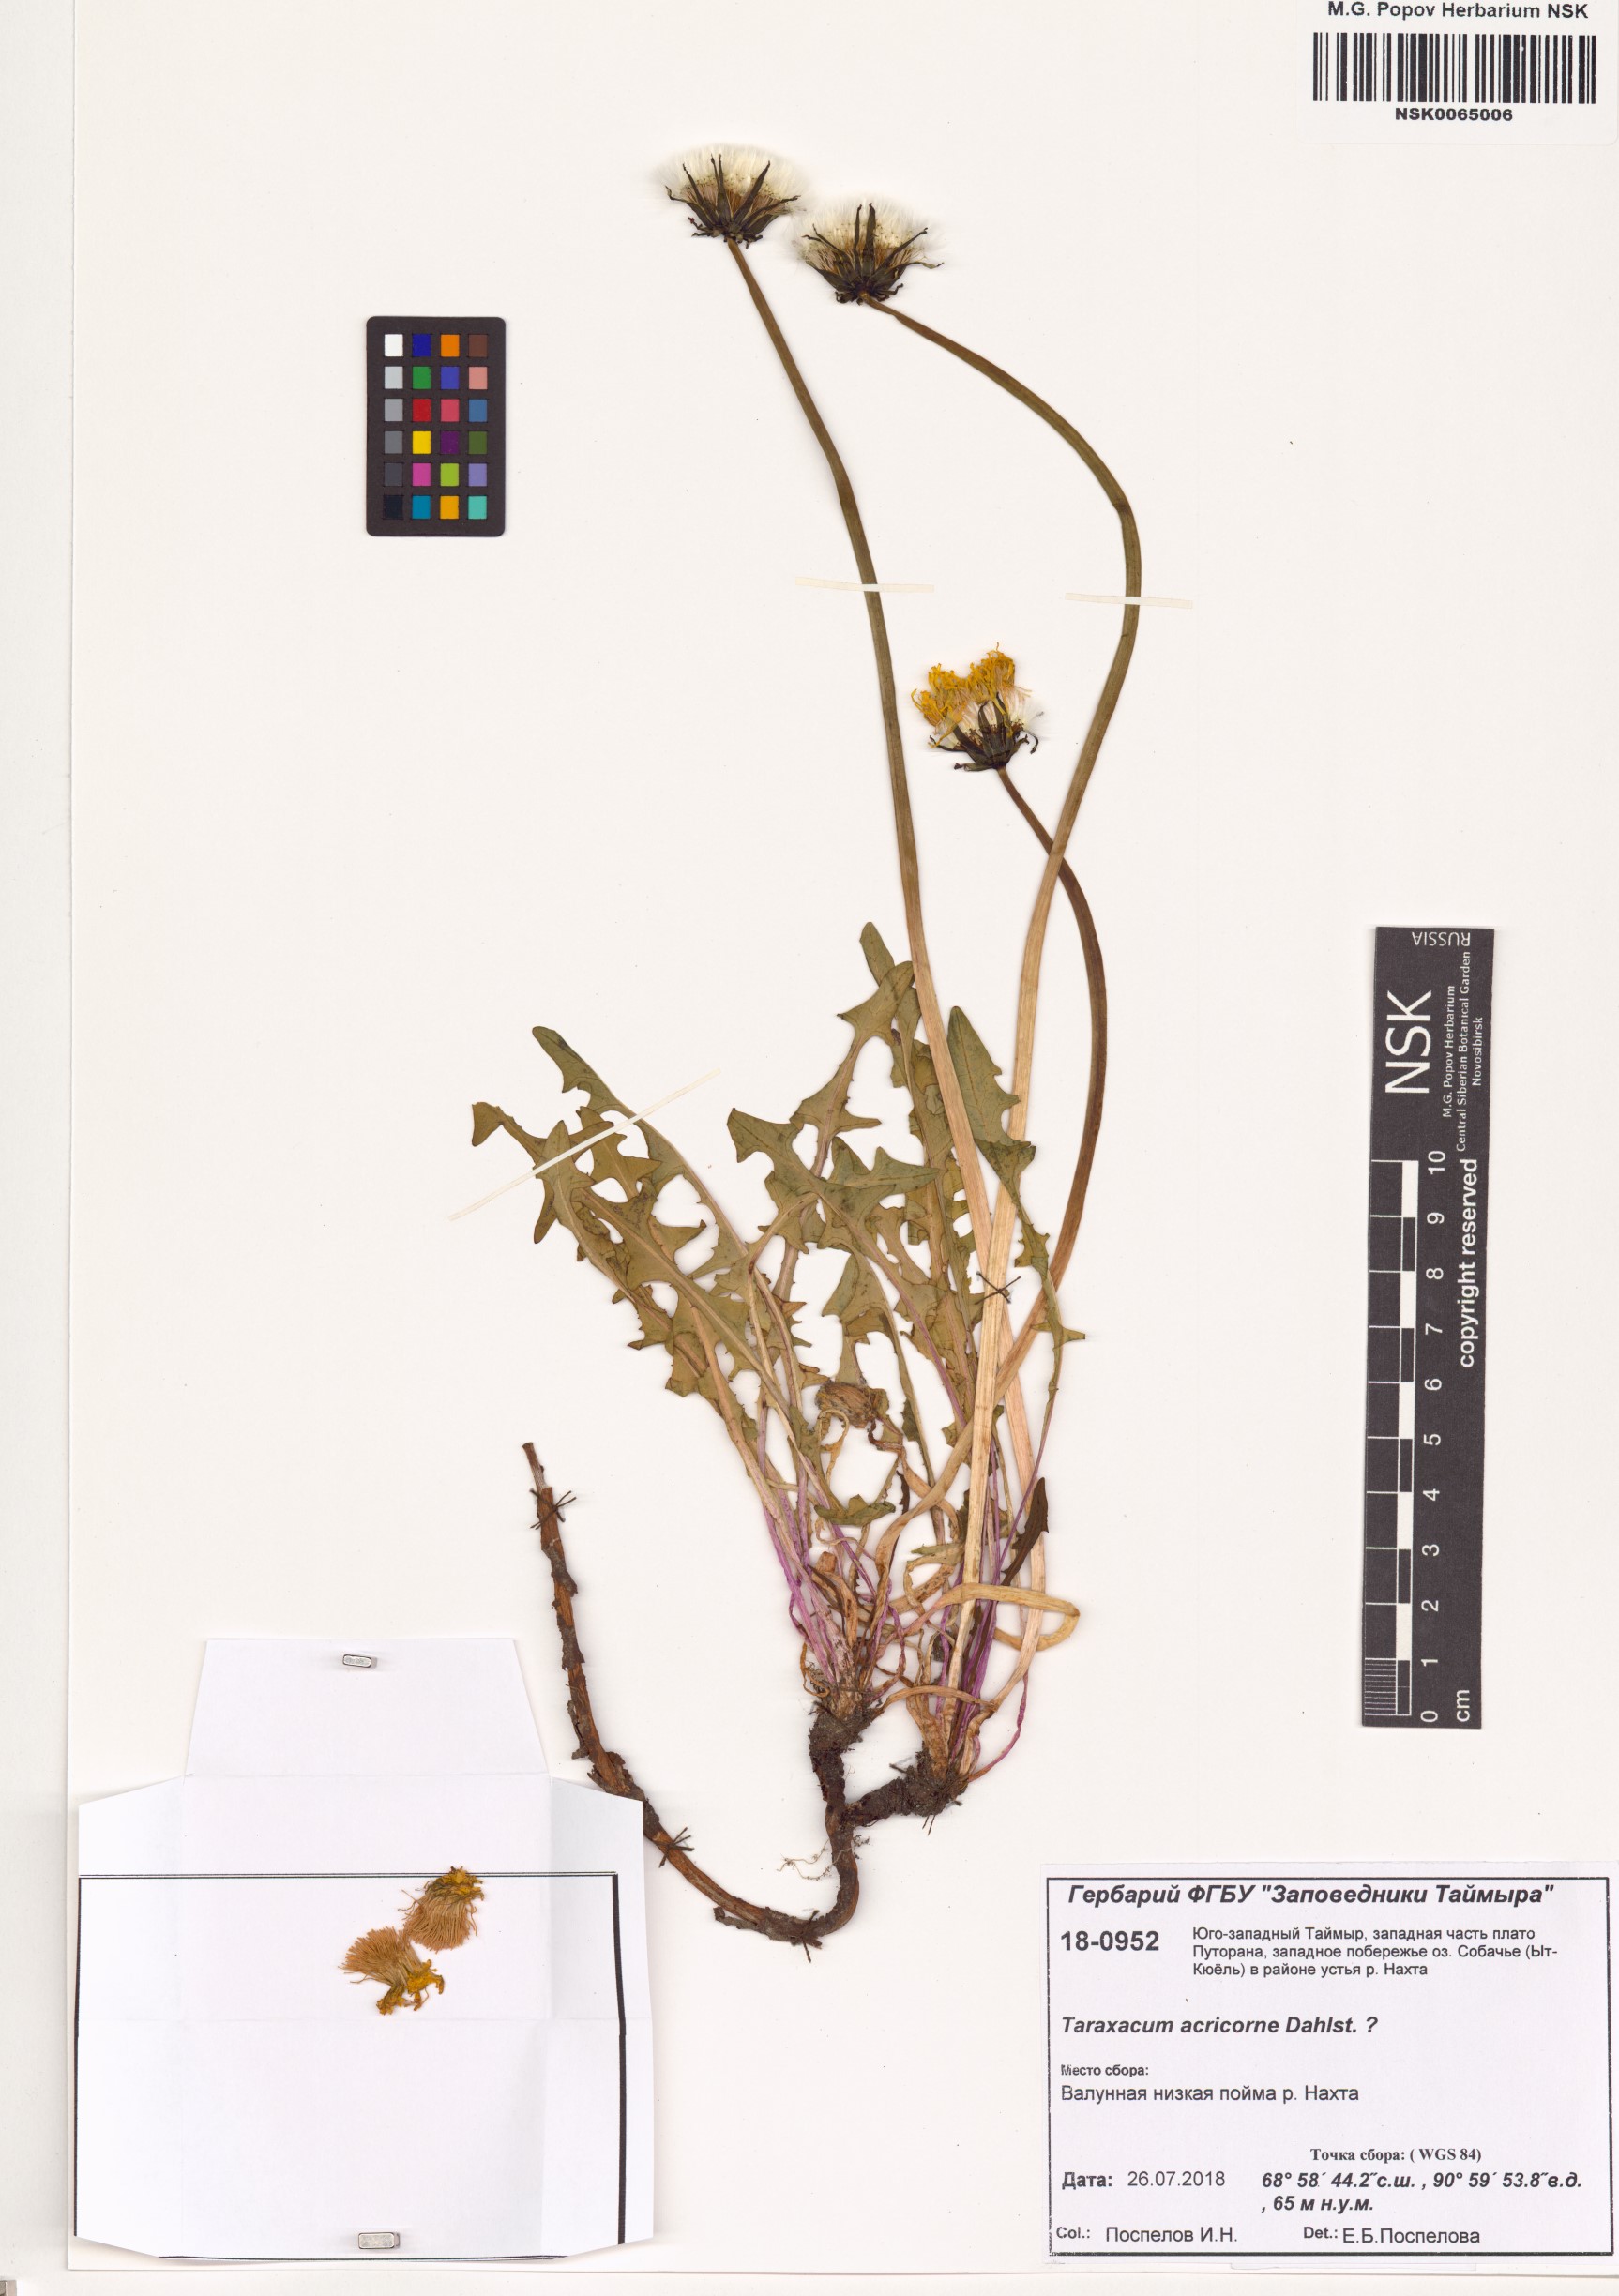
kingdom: Plantae
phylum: Tracheophyta
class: Magnoliopsida
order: Asterales
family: Asteraceae
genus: Taraxacum
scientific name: Taraxacum acricorne
